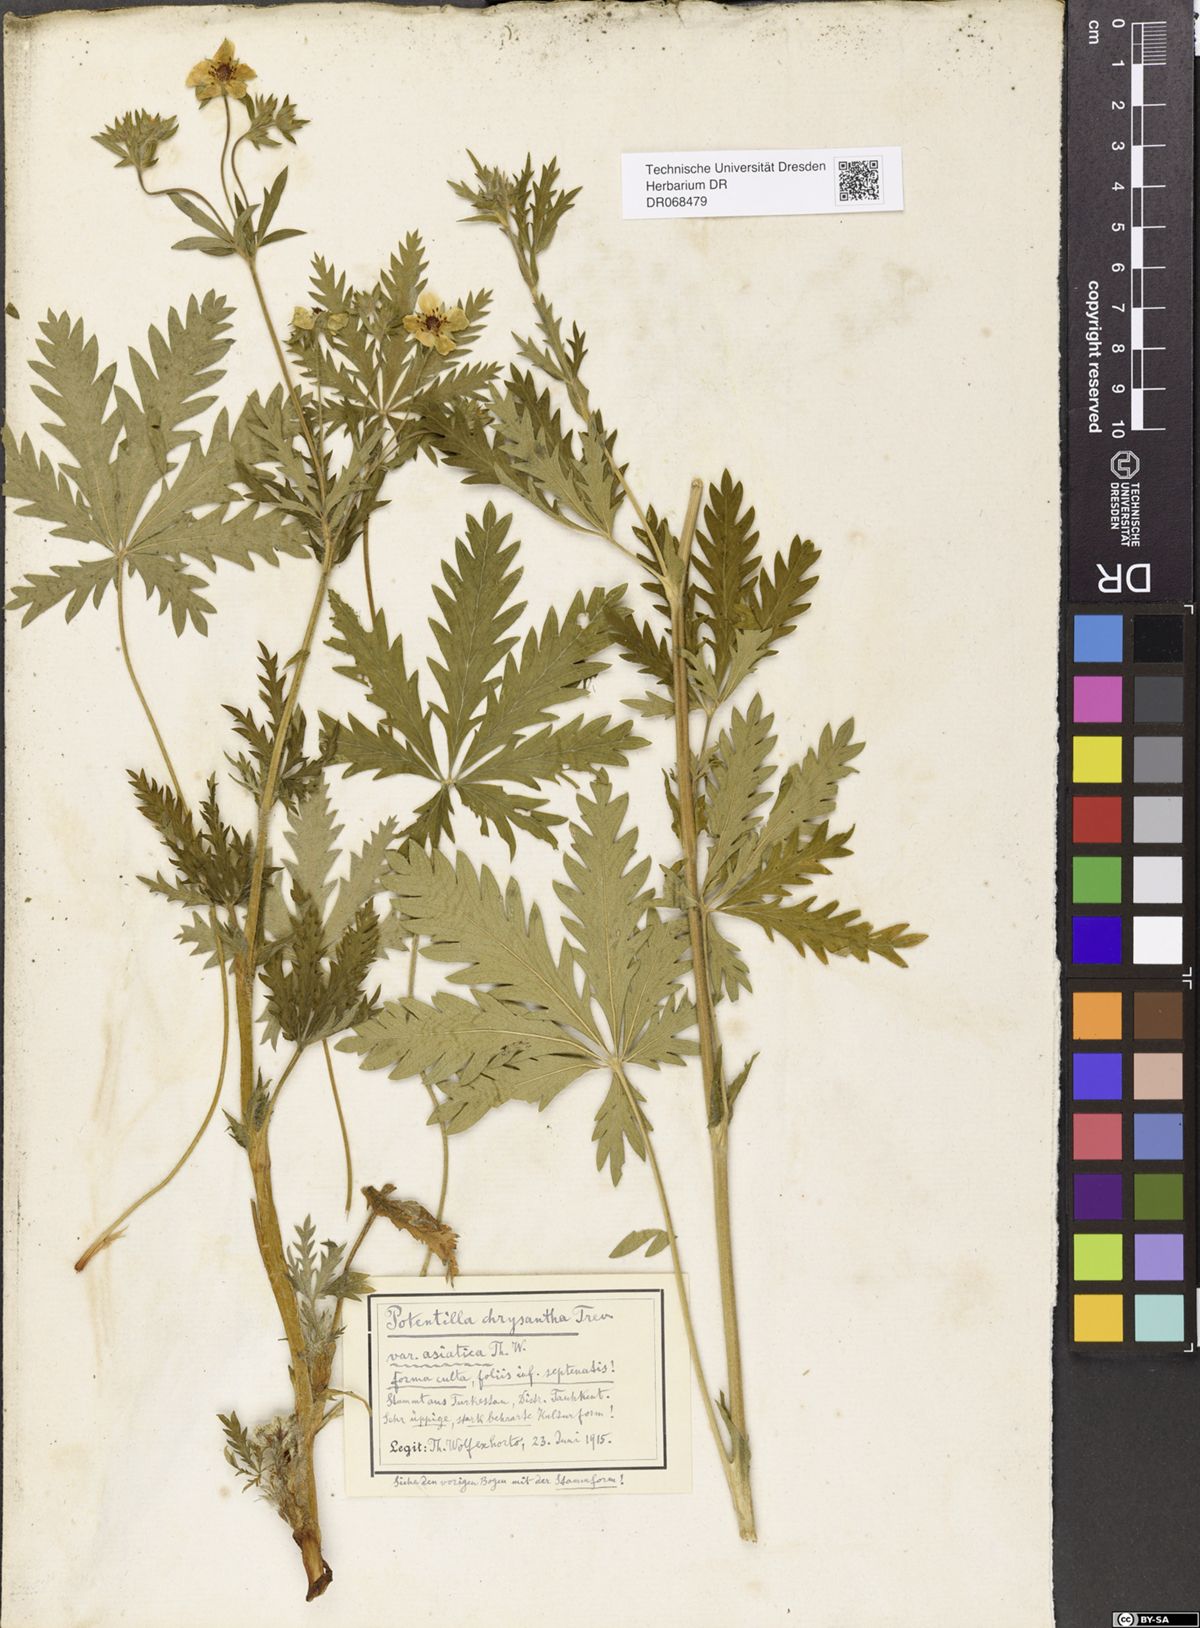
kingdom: Plantae
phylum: Tracheophyta
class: Magnoliopsida
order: Rosales
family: Rosaceae
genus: Potentilla
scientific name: Potentilla asiatica
